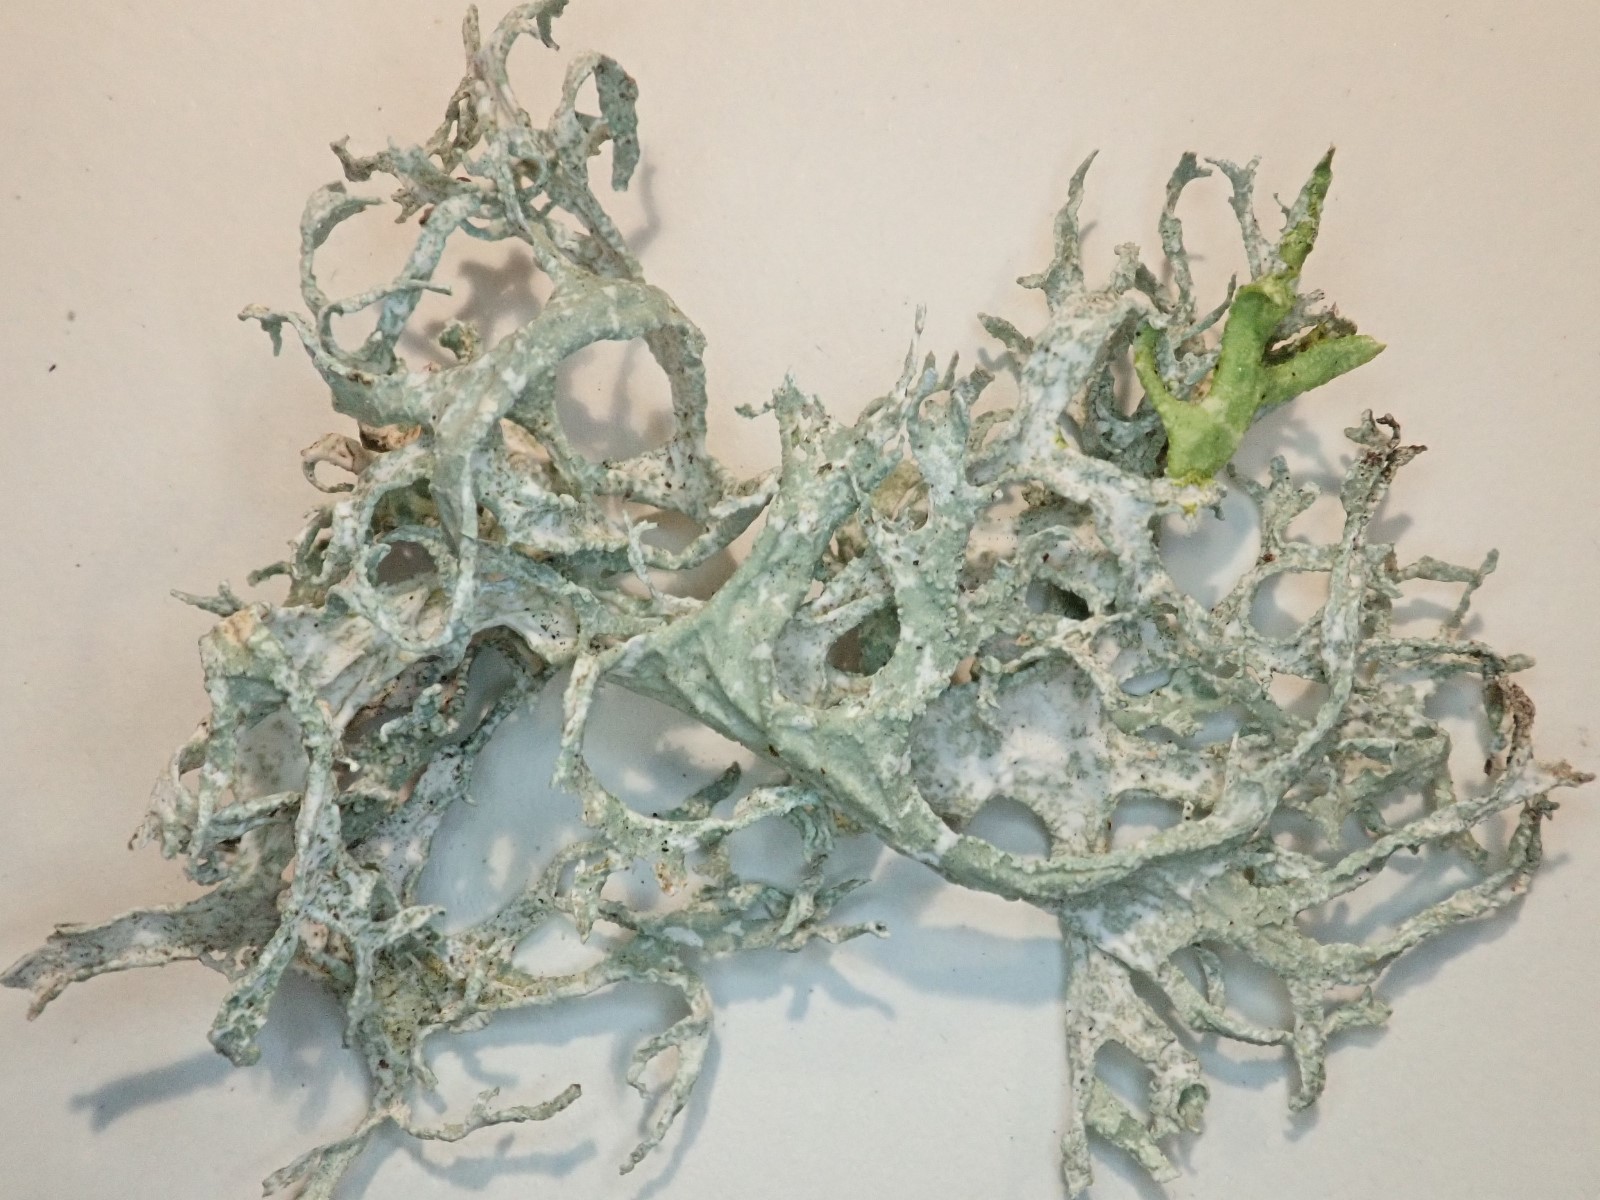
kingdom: Fungi
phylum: Ascomycota
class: Lecanoromycetes
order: Lecanorales
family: Parmeliaceae
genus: Evernia
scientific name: Evernia prunastri
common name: almindelig slåenlav
